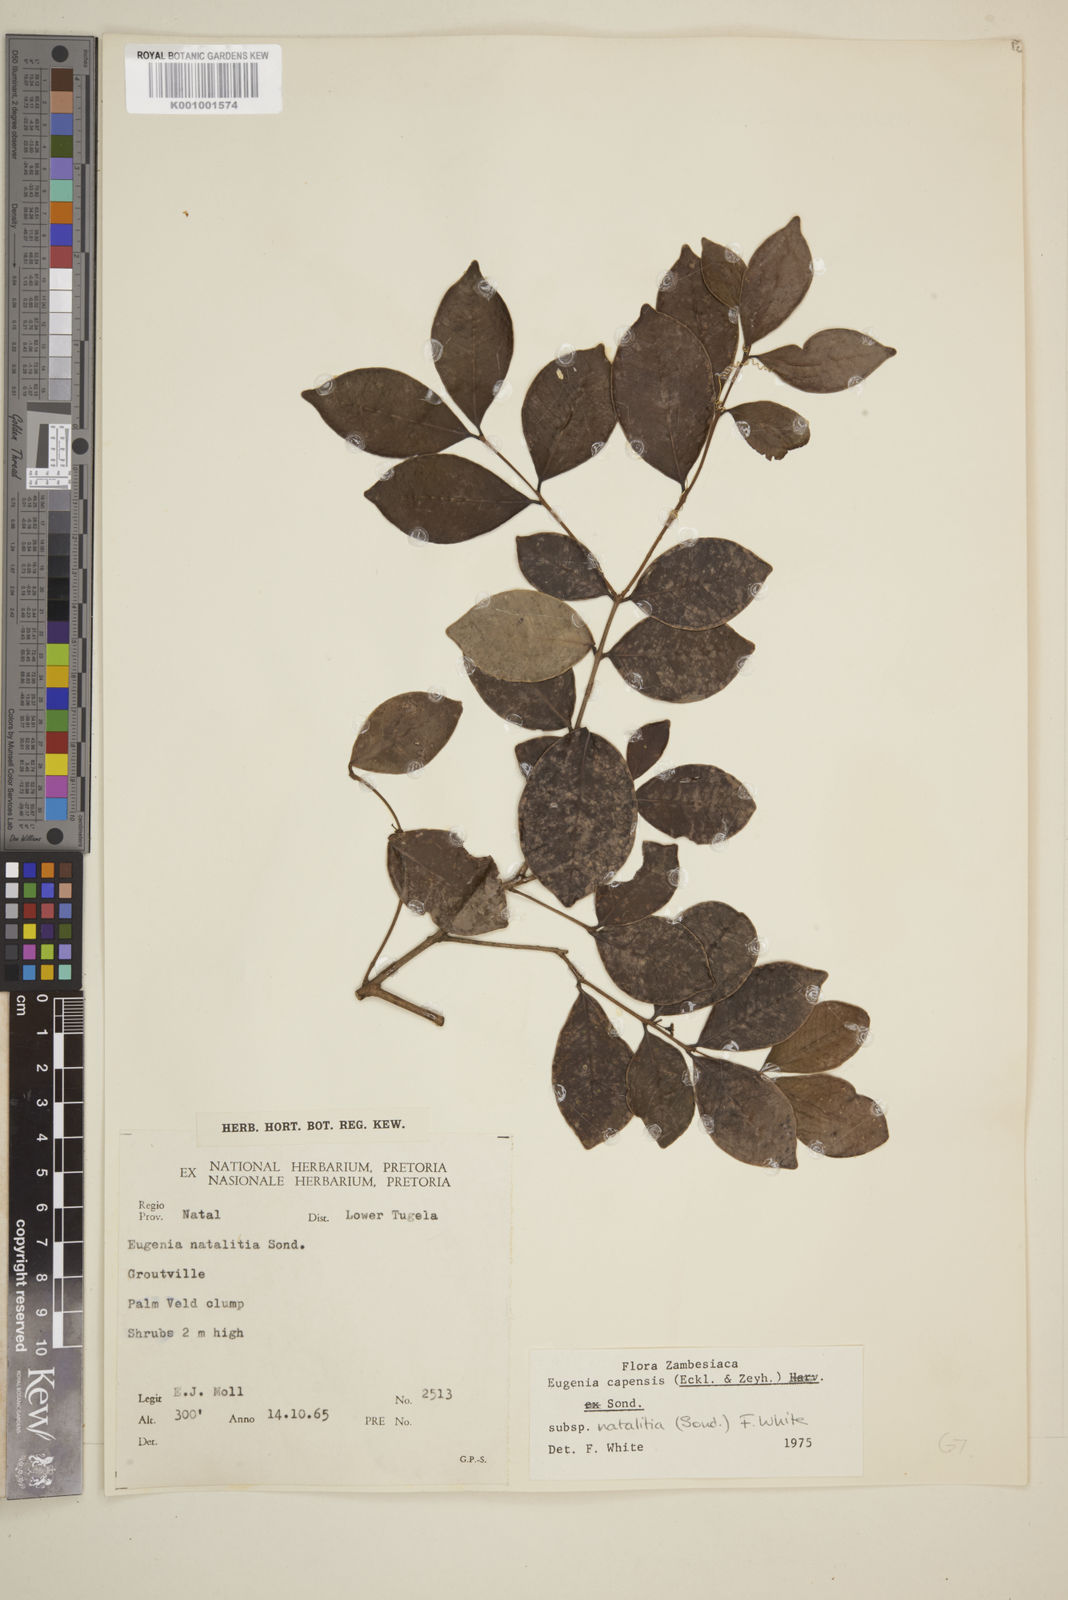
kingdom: Plantae
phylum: Tracheophyta
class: Magnoliopsida
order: Myrtales
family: Myrtaceae
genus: Eugenia
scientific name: Eugenia natalitia
